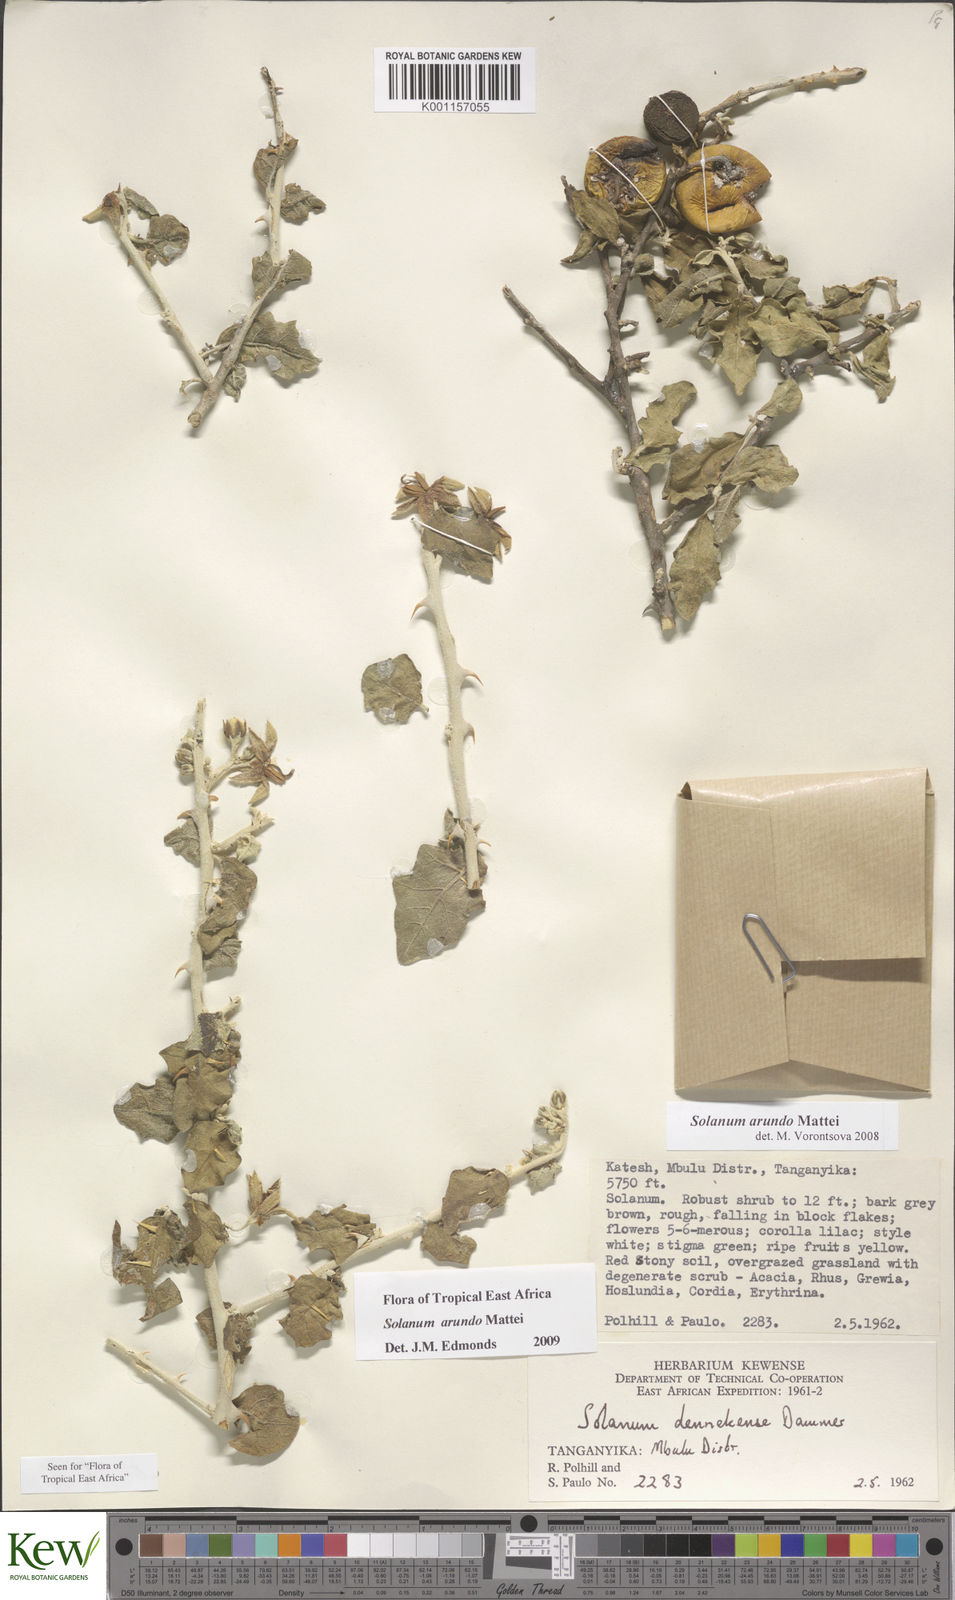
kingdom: Plantae
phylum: Tracheophyta
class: Magnoliopsida
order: Solanales
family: Solanaceae
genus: Solanum
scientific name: Solanum arundo
